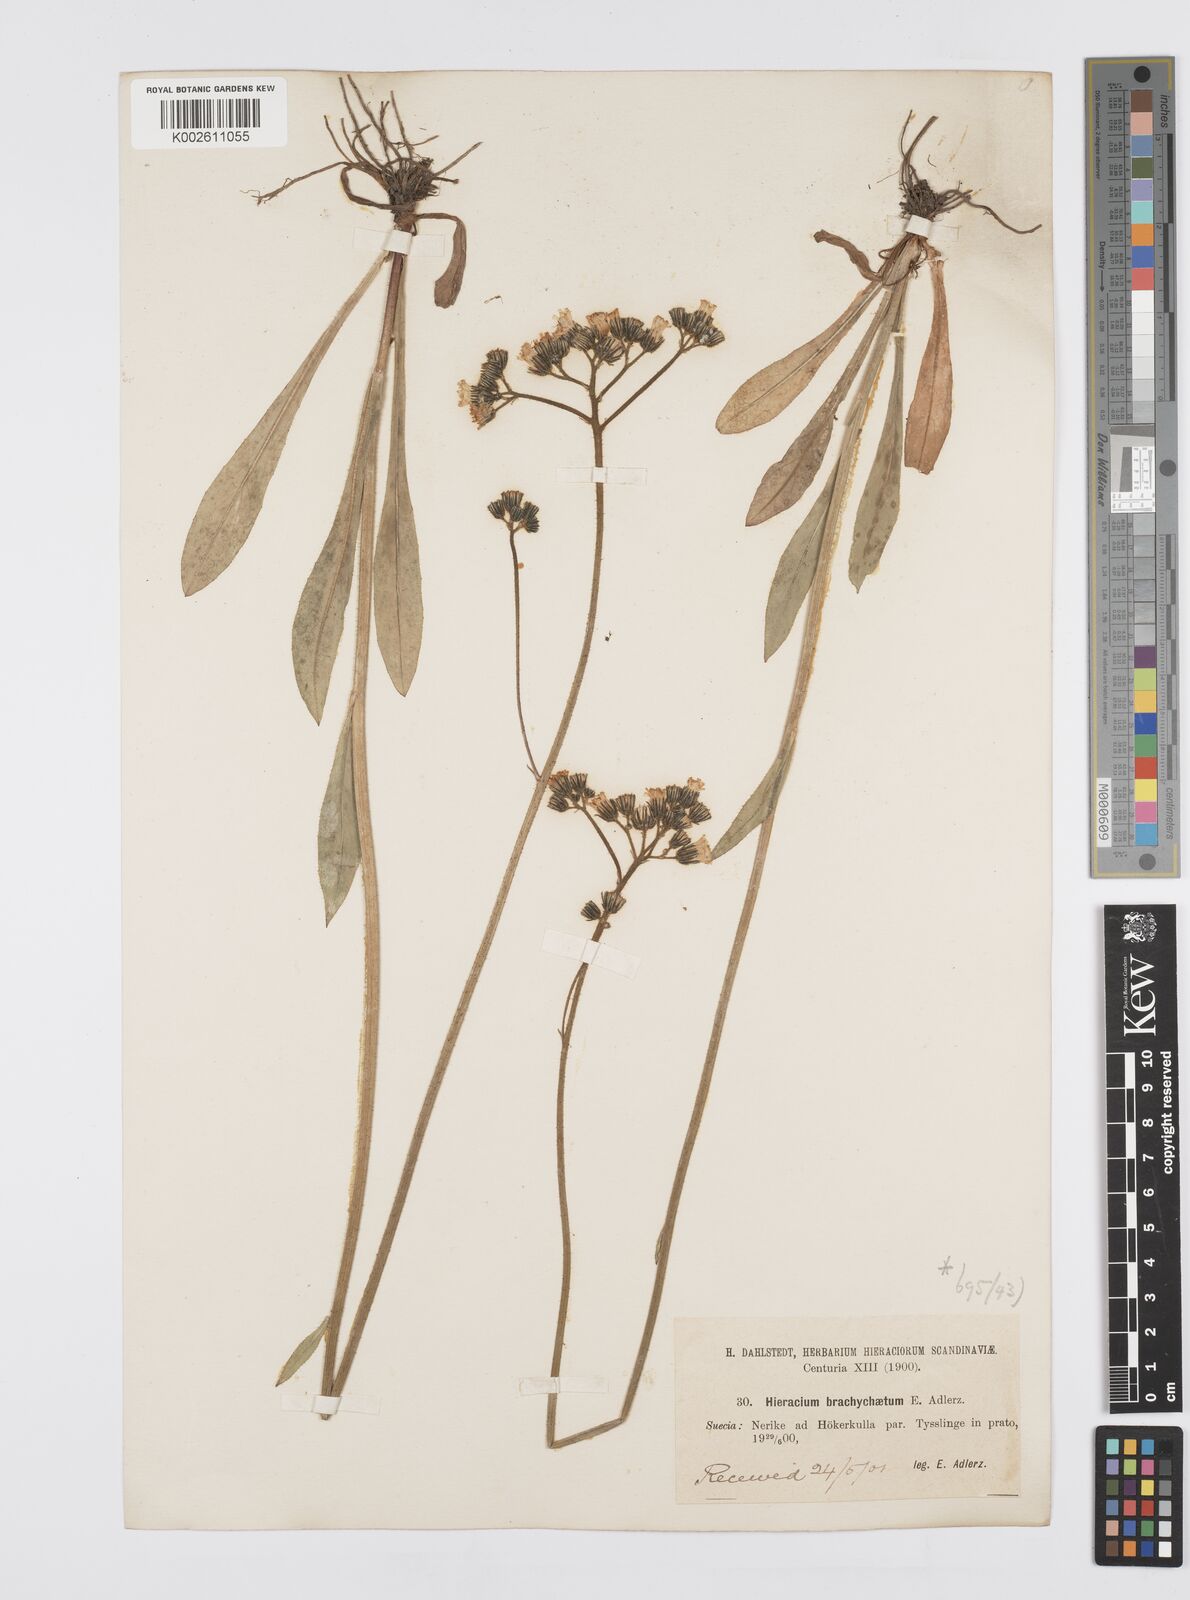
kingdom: Plantae
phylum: Tracheophyta
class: Magnoliopsida
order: Asterales
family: Asteraceae
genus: Pilosella
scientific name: Pilosella piloselloides
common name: Glaucous king-devil
